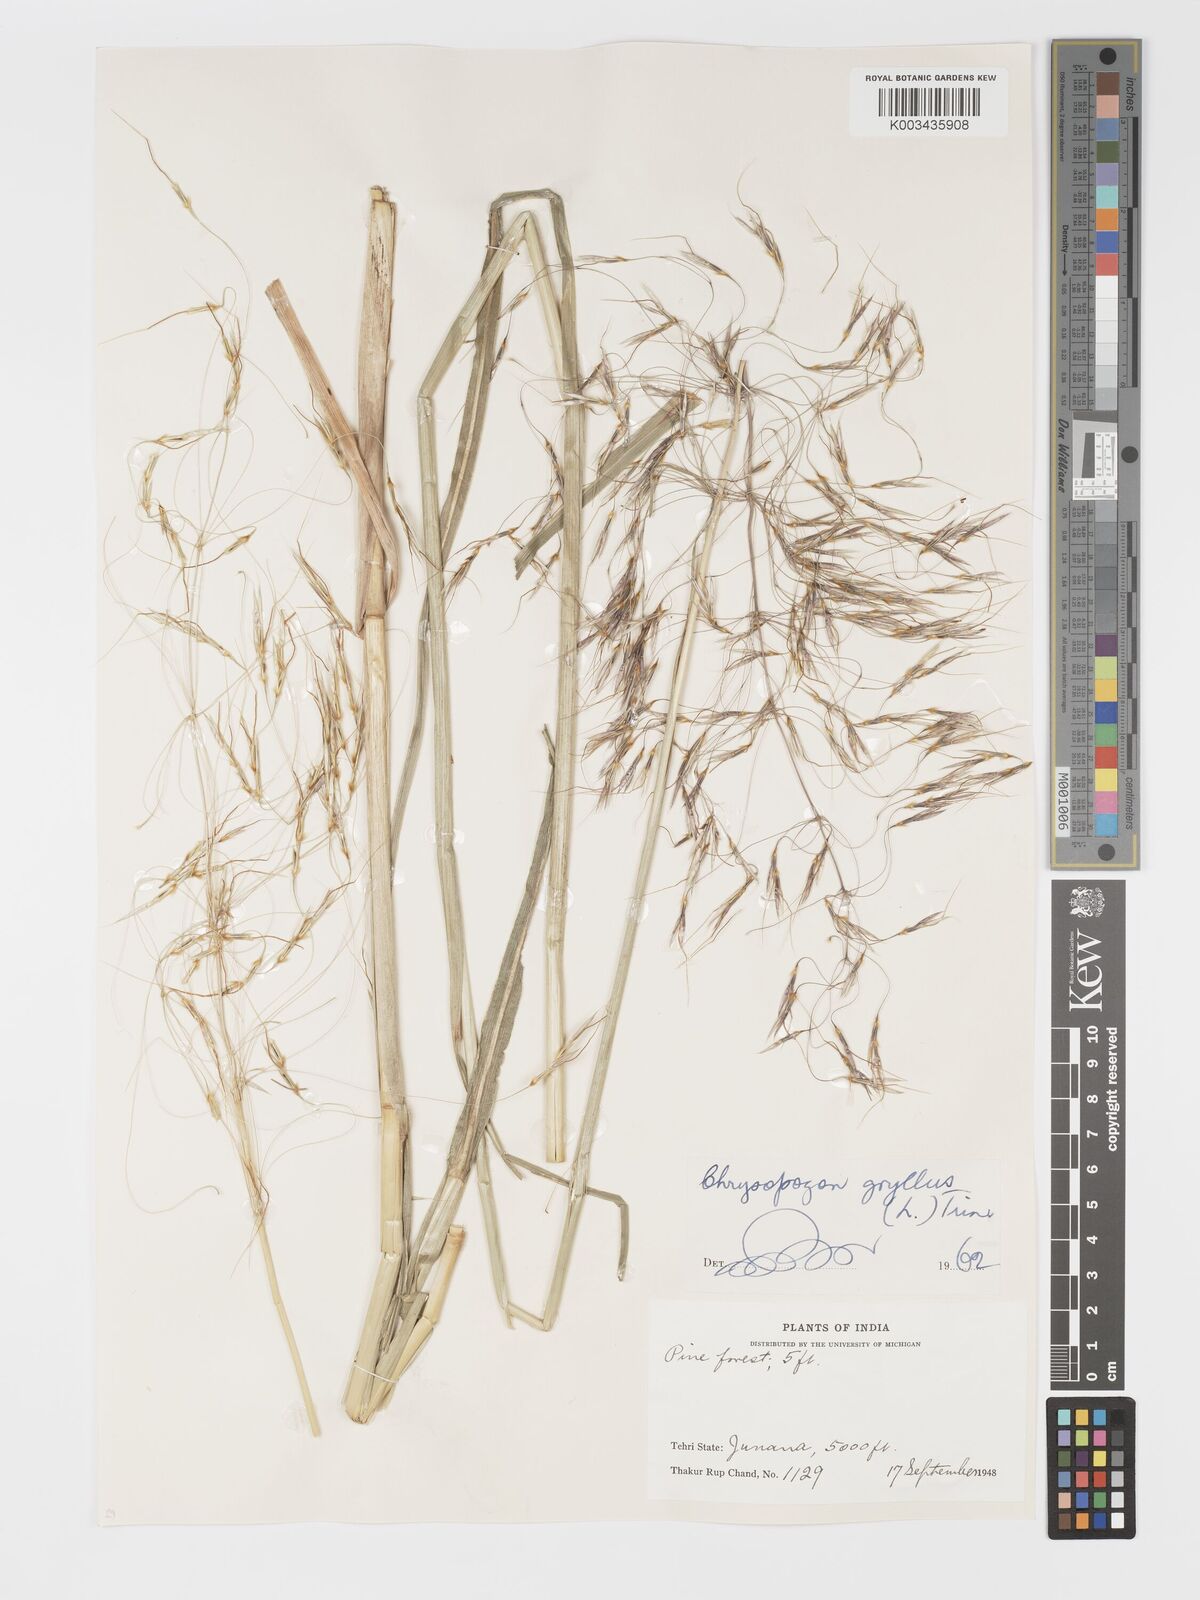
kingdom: Plantae
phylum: Tracheophyta
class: Liliopsida
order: Poales
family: Poaceae
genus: Chrysopogon
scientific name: Chrysopogon gryllus
